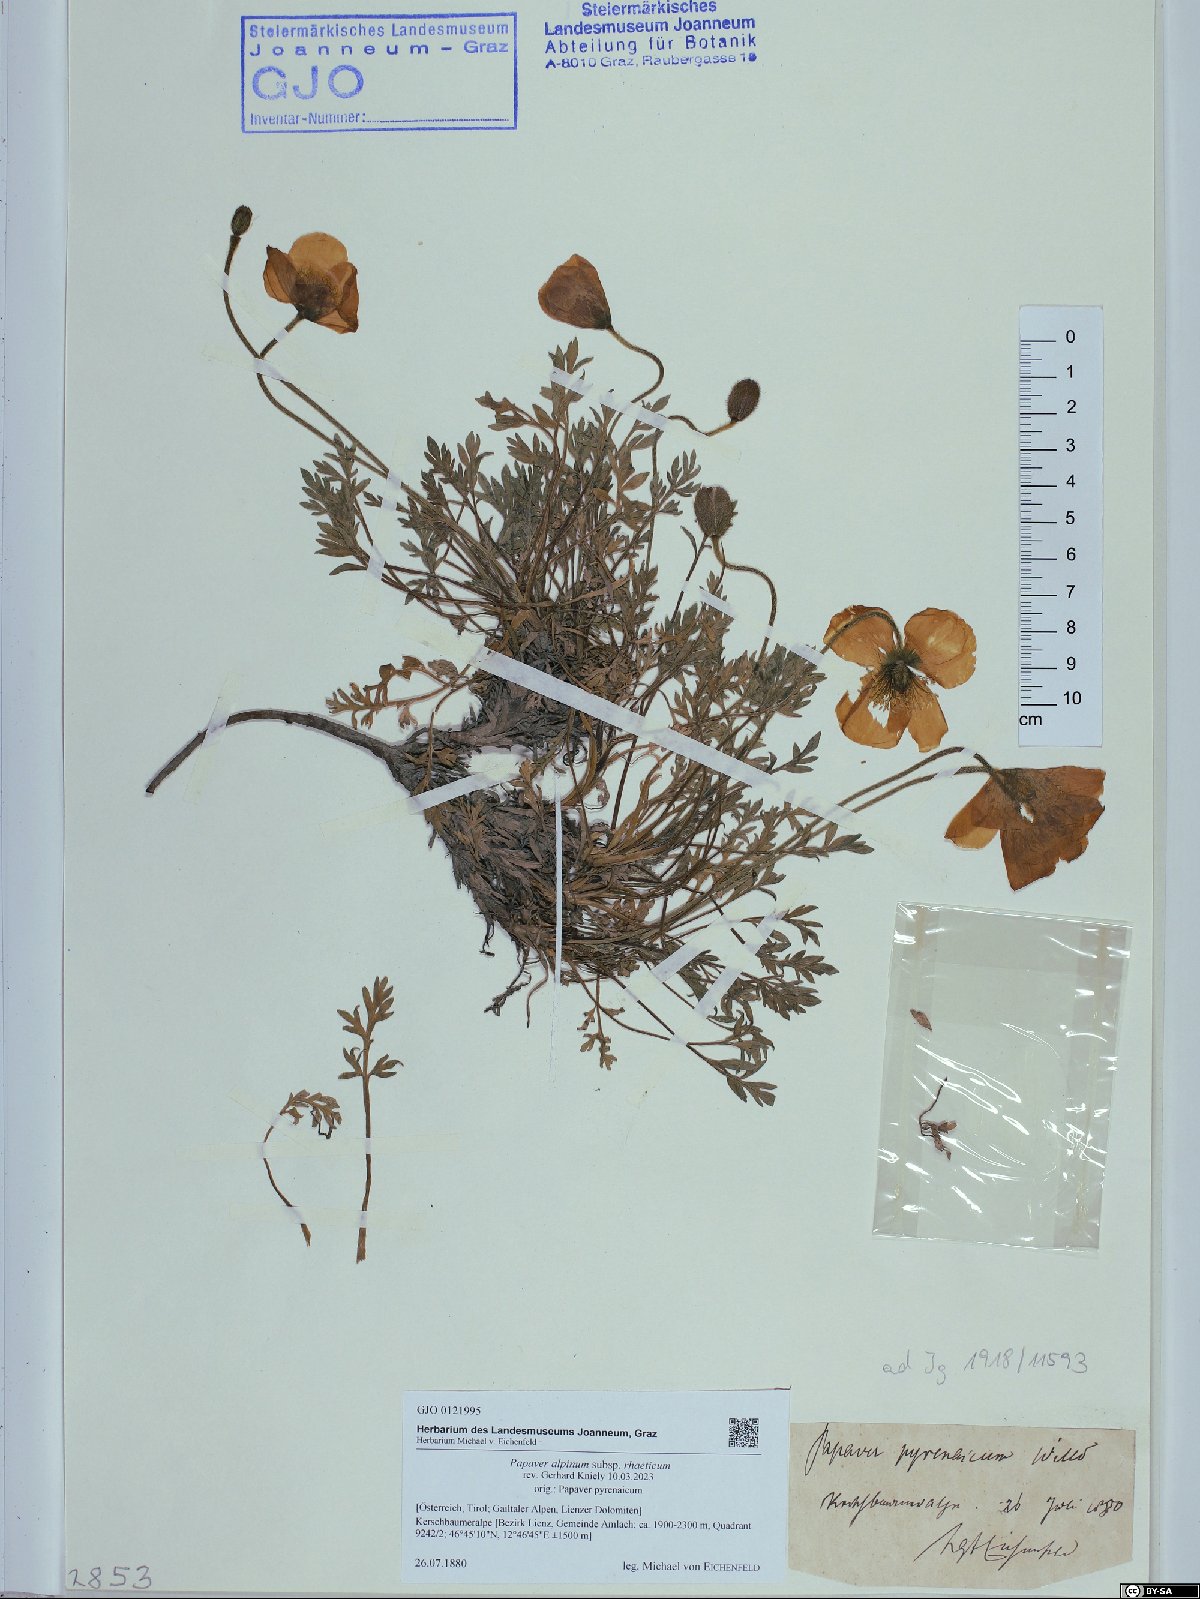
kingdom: Plantae
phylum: Tracheophyta
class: Magnoliopsida
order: Ranunculales
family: Papaveraceae
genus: Papaver
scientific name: Papaver alpinum
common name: Austrian poppy
